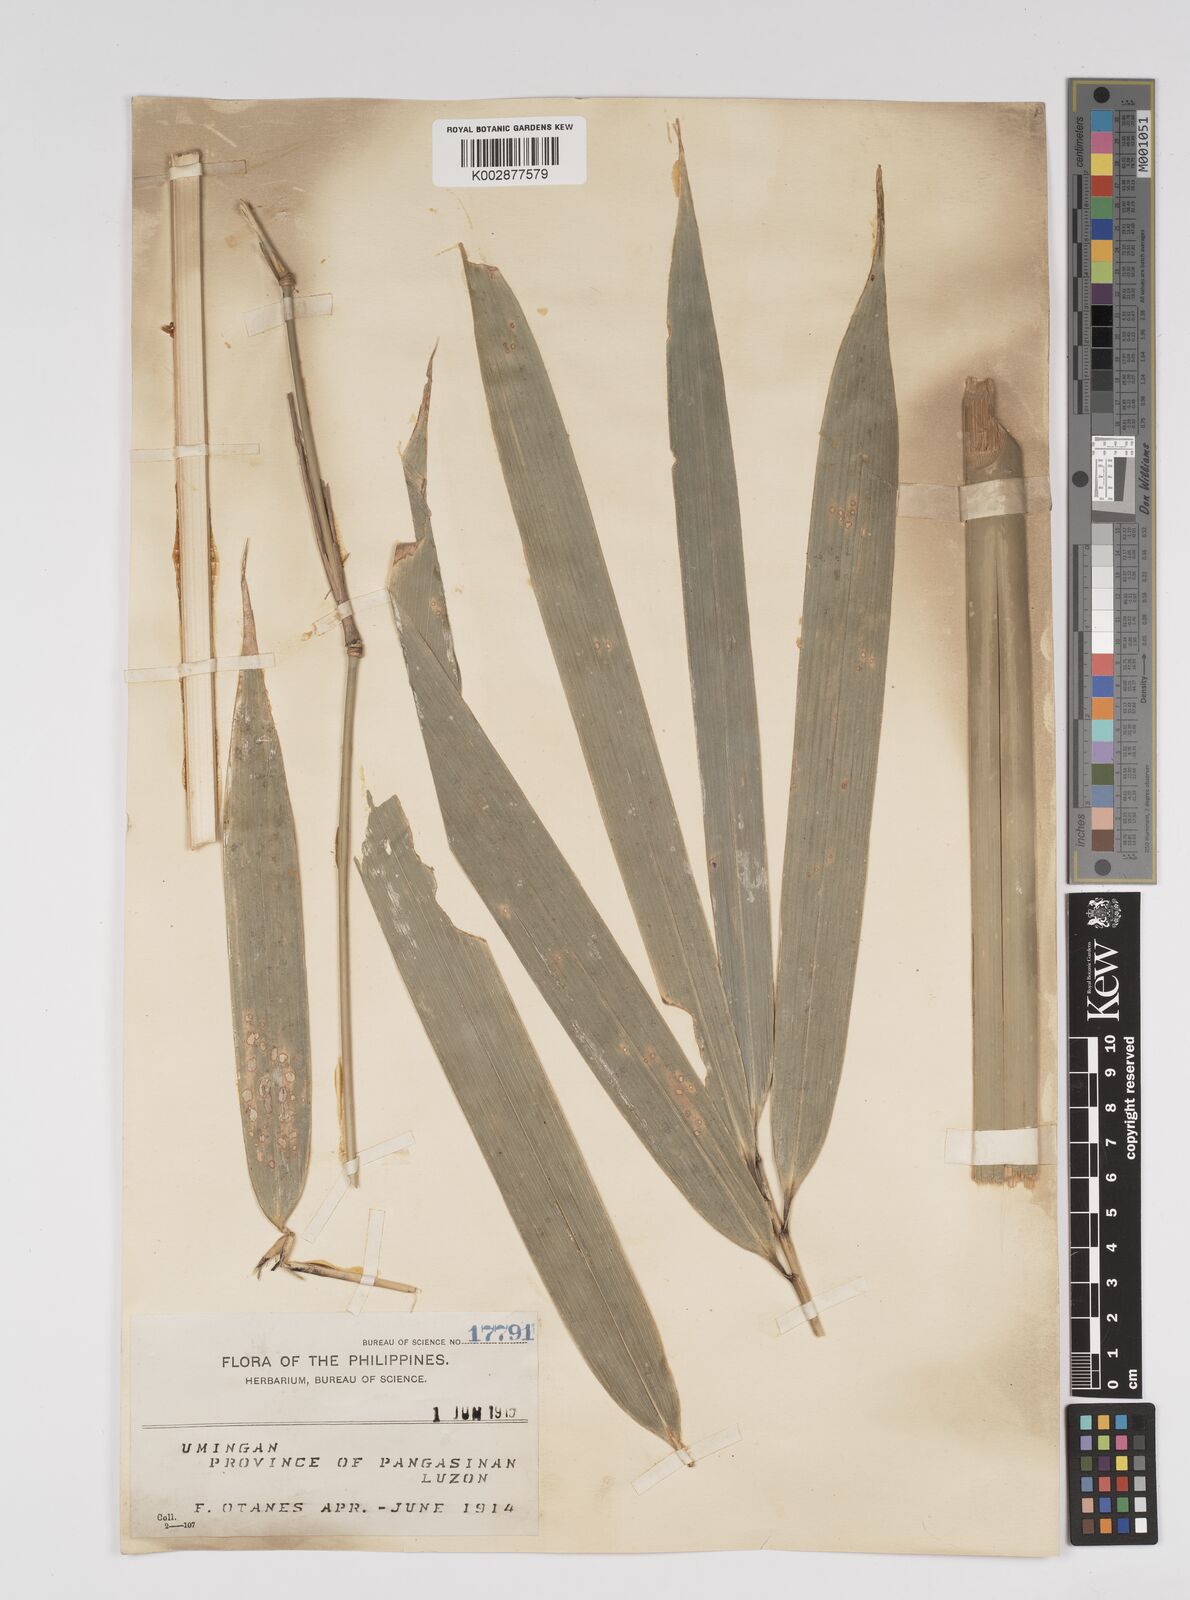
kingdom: Plantae
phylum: Tracheophyta
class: Liliopsida
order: Poales
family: Poaceae
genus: Bambusa
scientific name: Bambusa
